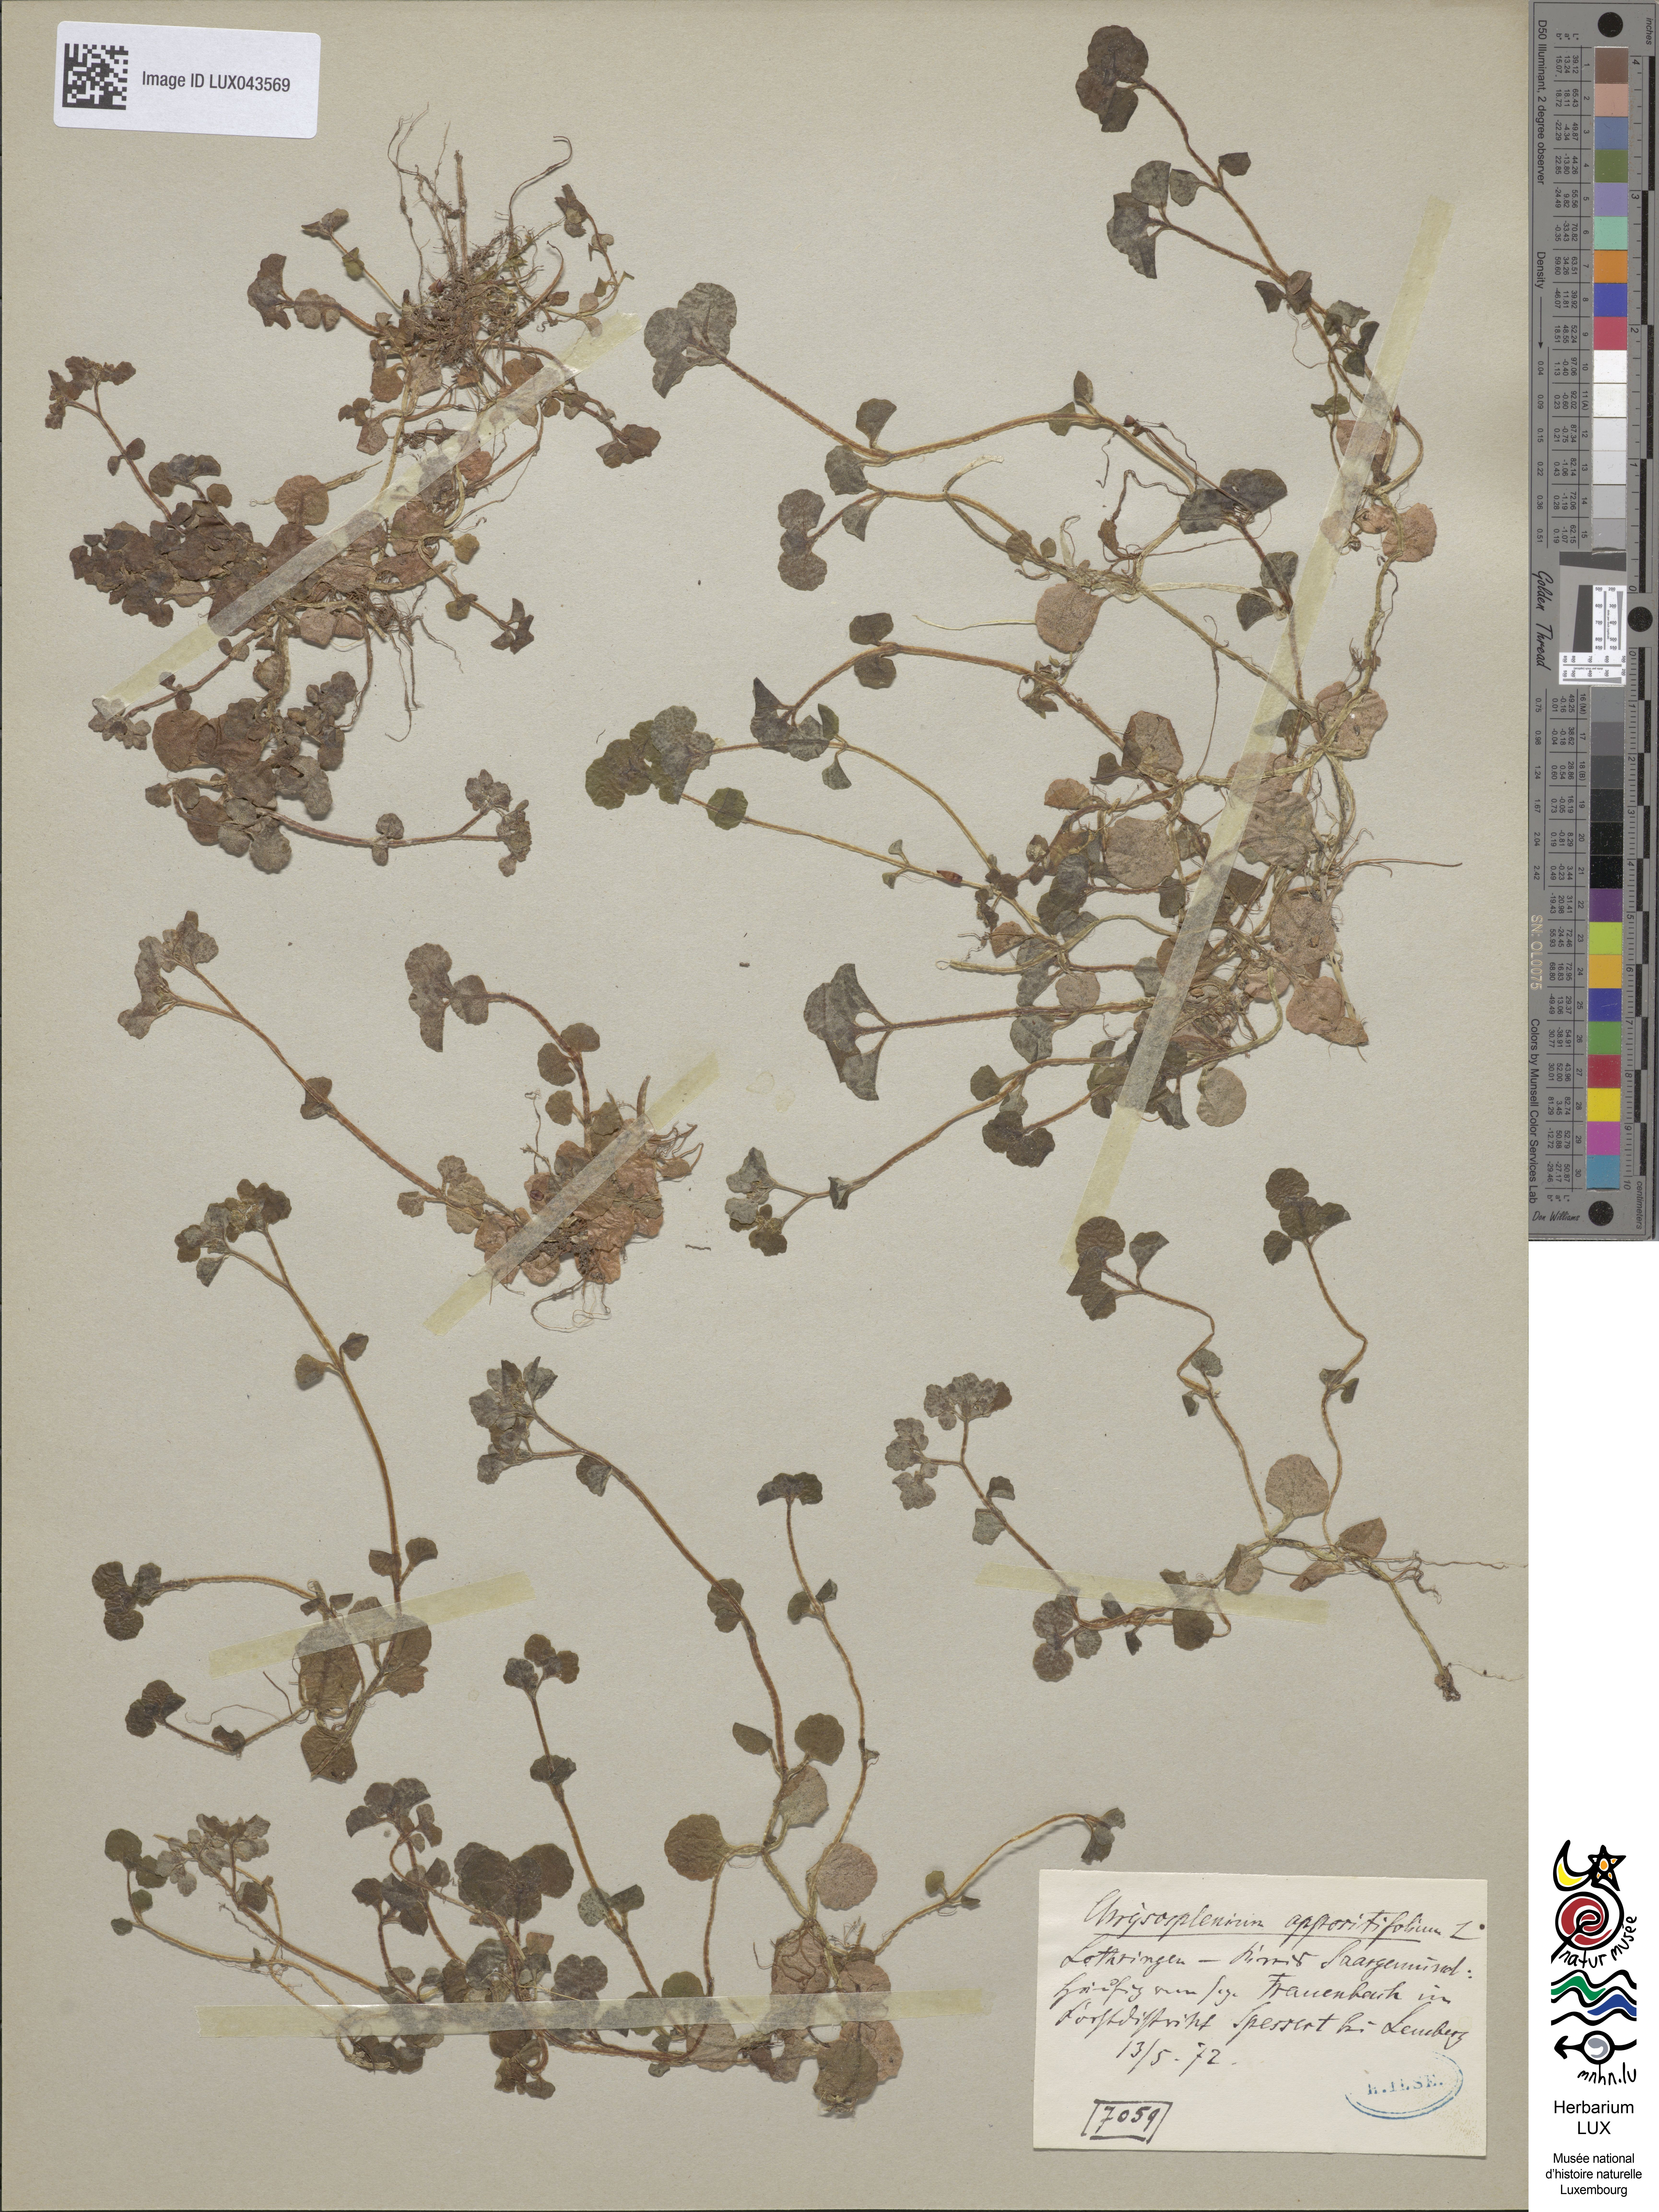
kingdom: Plantae
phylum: Tracheophyta
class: Magnoliopsida
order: Saxifragales
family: Saxifragaceae
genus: Chrysosplenium
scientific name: Chrysosplenium oppositifolium
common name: Opposite-leaved golden-saxifrage
